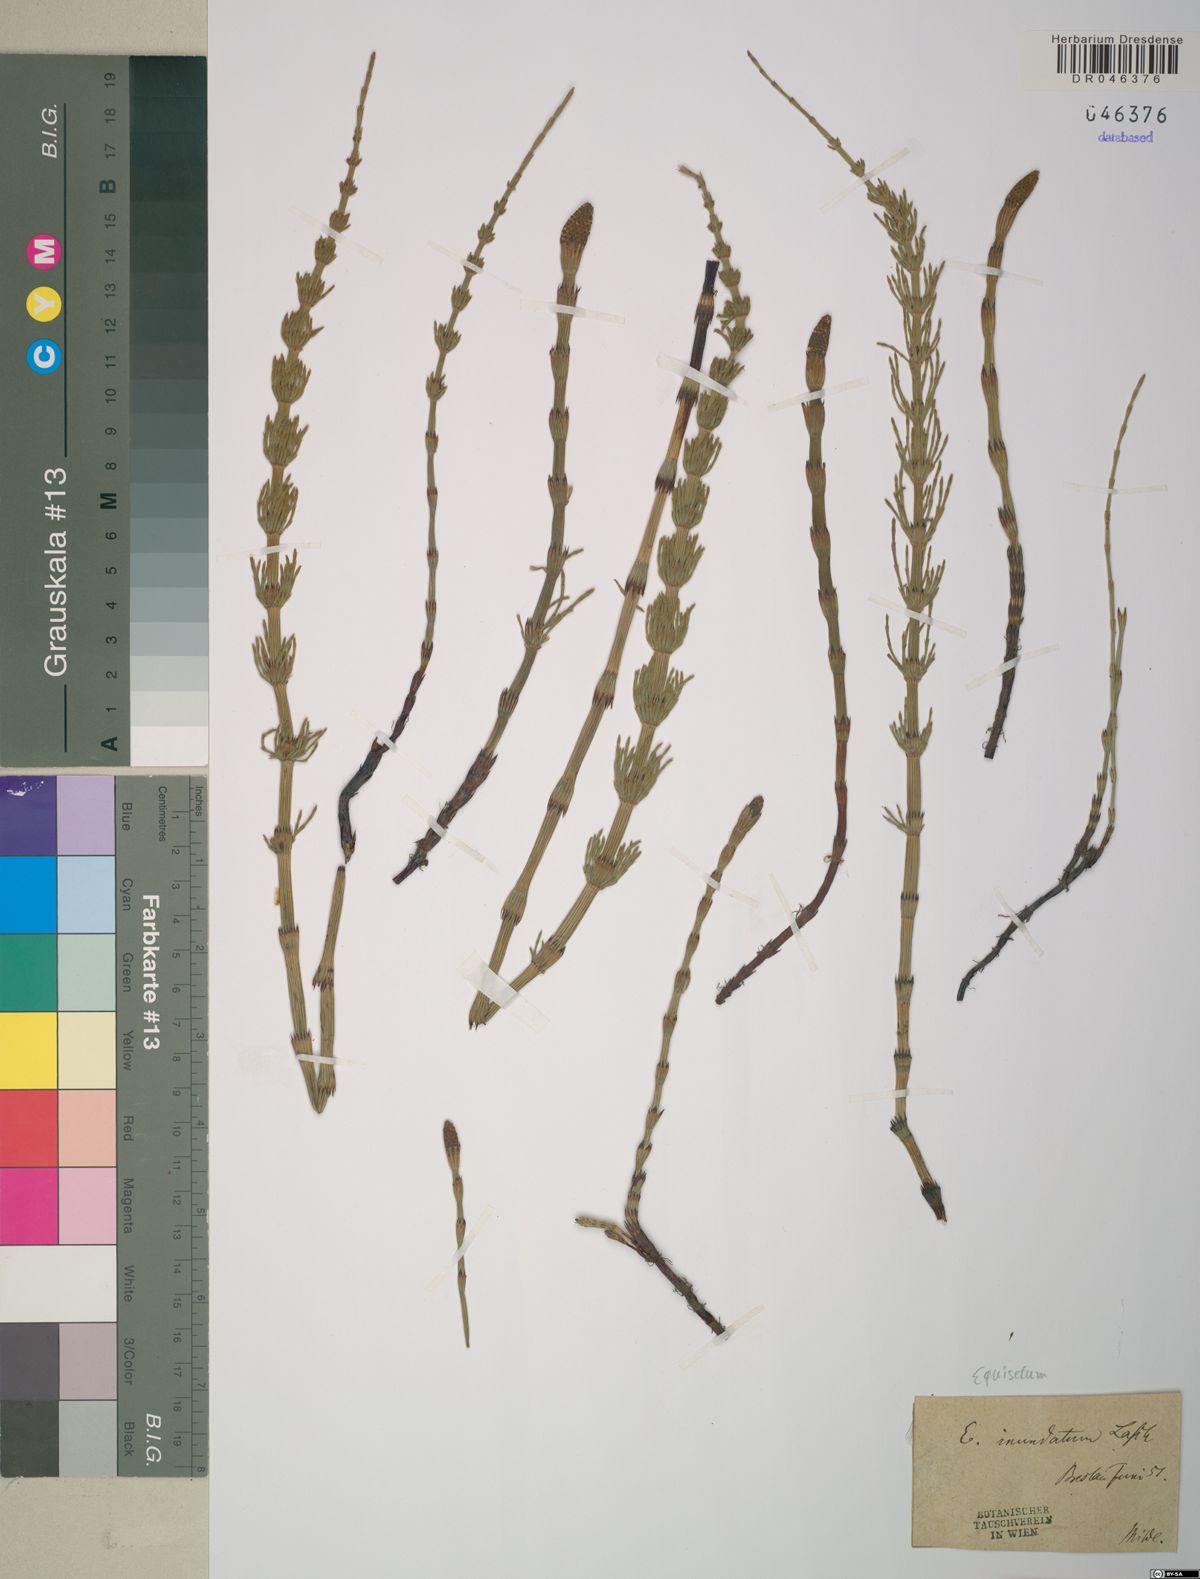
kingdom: Plantae
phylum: Tracheophyta
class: Polypodiopsida
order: Equisetales
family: Equisetaceae
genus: Equisetum
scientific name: Equisetum
